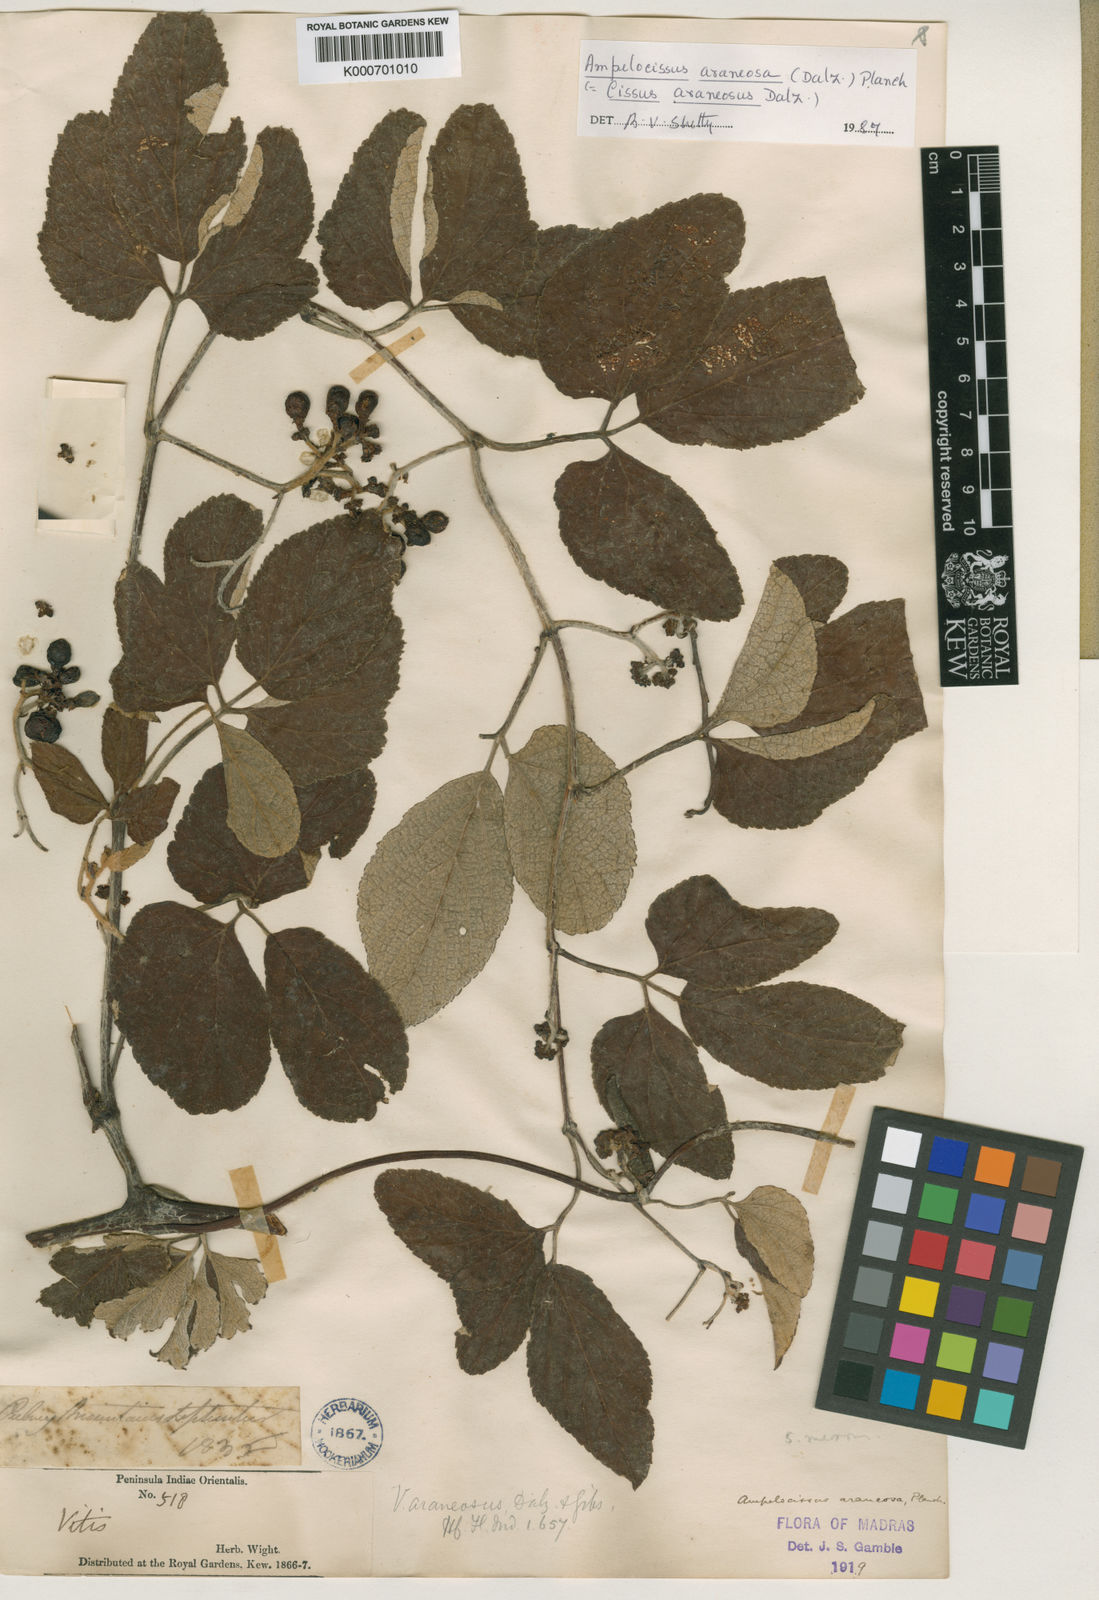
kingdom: Plantae
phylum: Tracheophyta
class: Magnoliopsida
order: Vitales
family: Vitaceae
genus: Ampelocissus
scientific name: Ampelocissus
